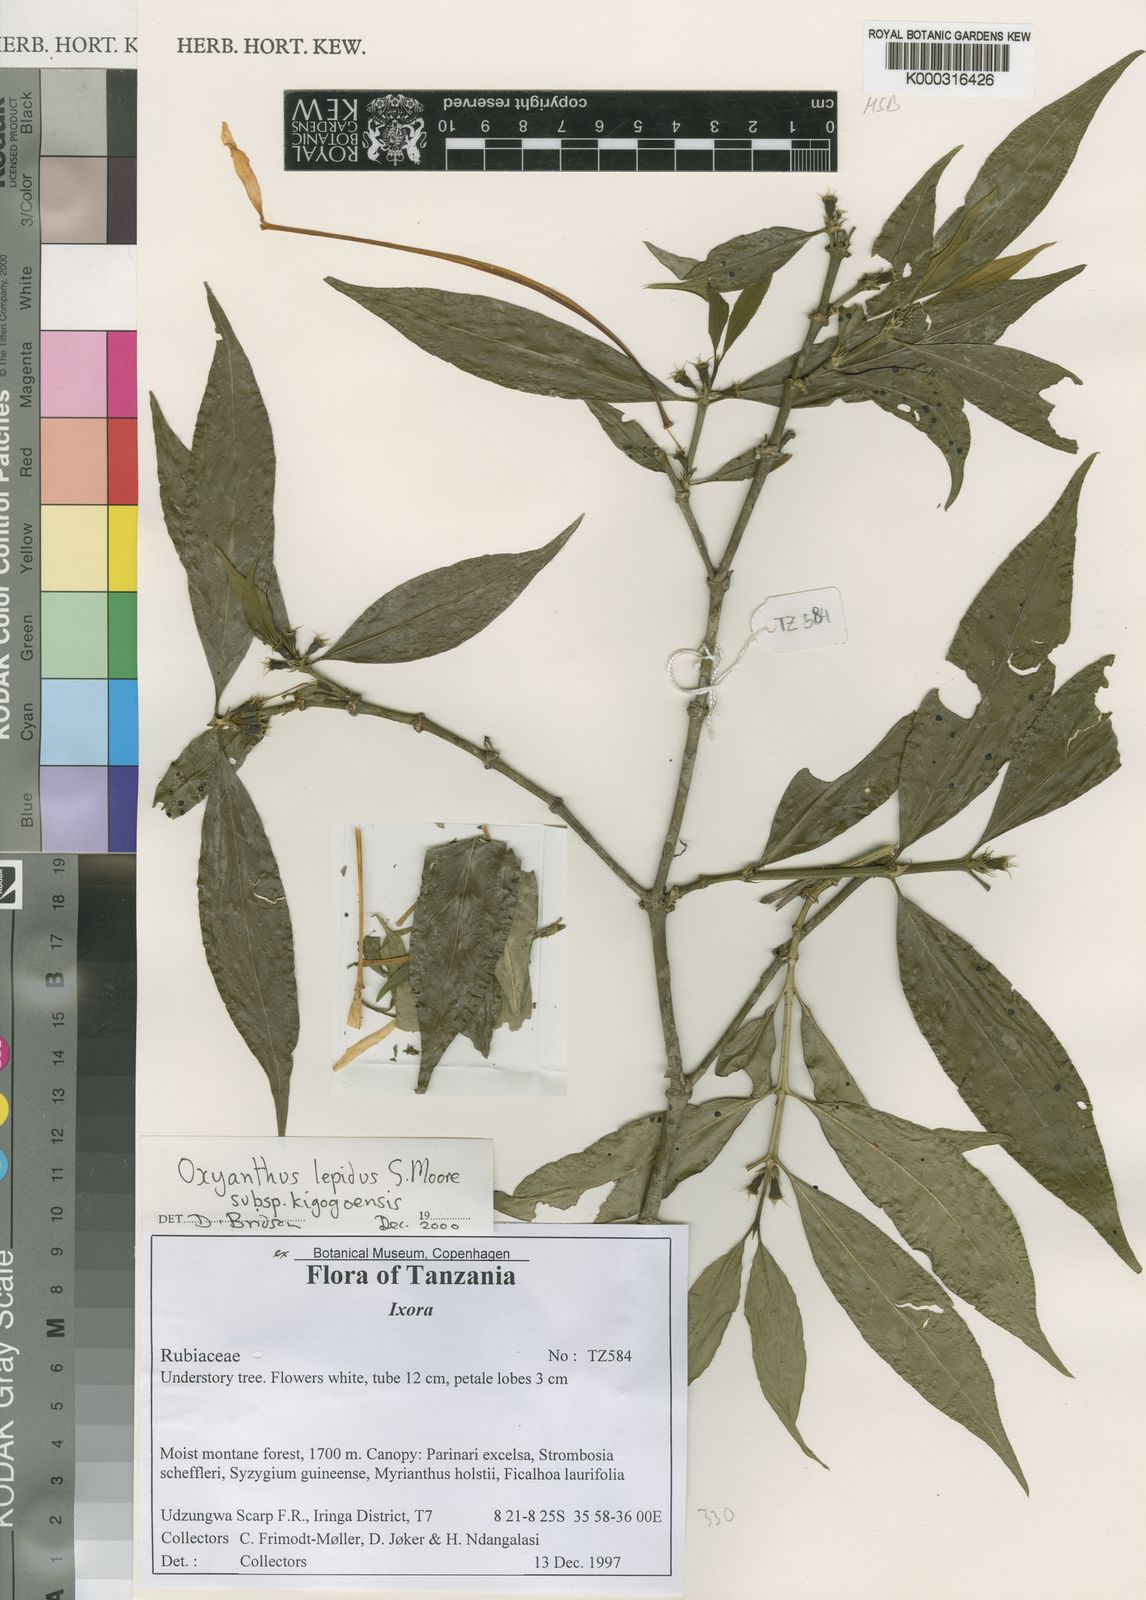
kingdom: Plantae
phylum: Tracheophyta
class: Magnoliopsida
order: Gentianales
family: Rubiaceae
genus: Oxyanthus
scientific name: Oxyanthus lepidus
